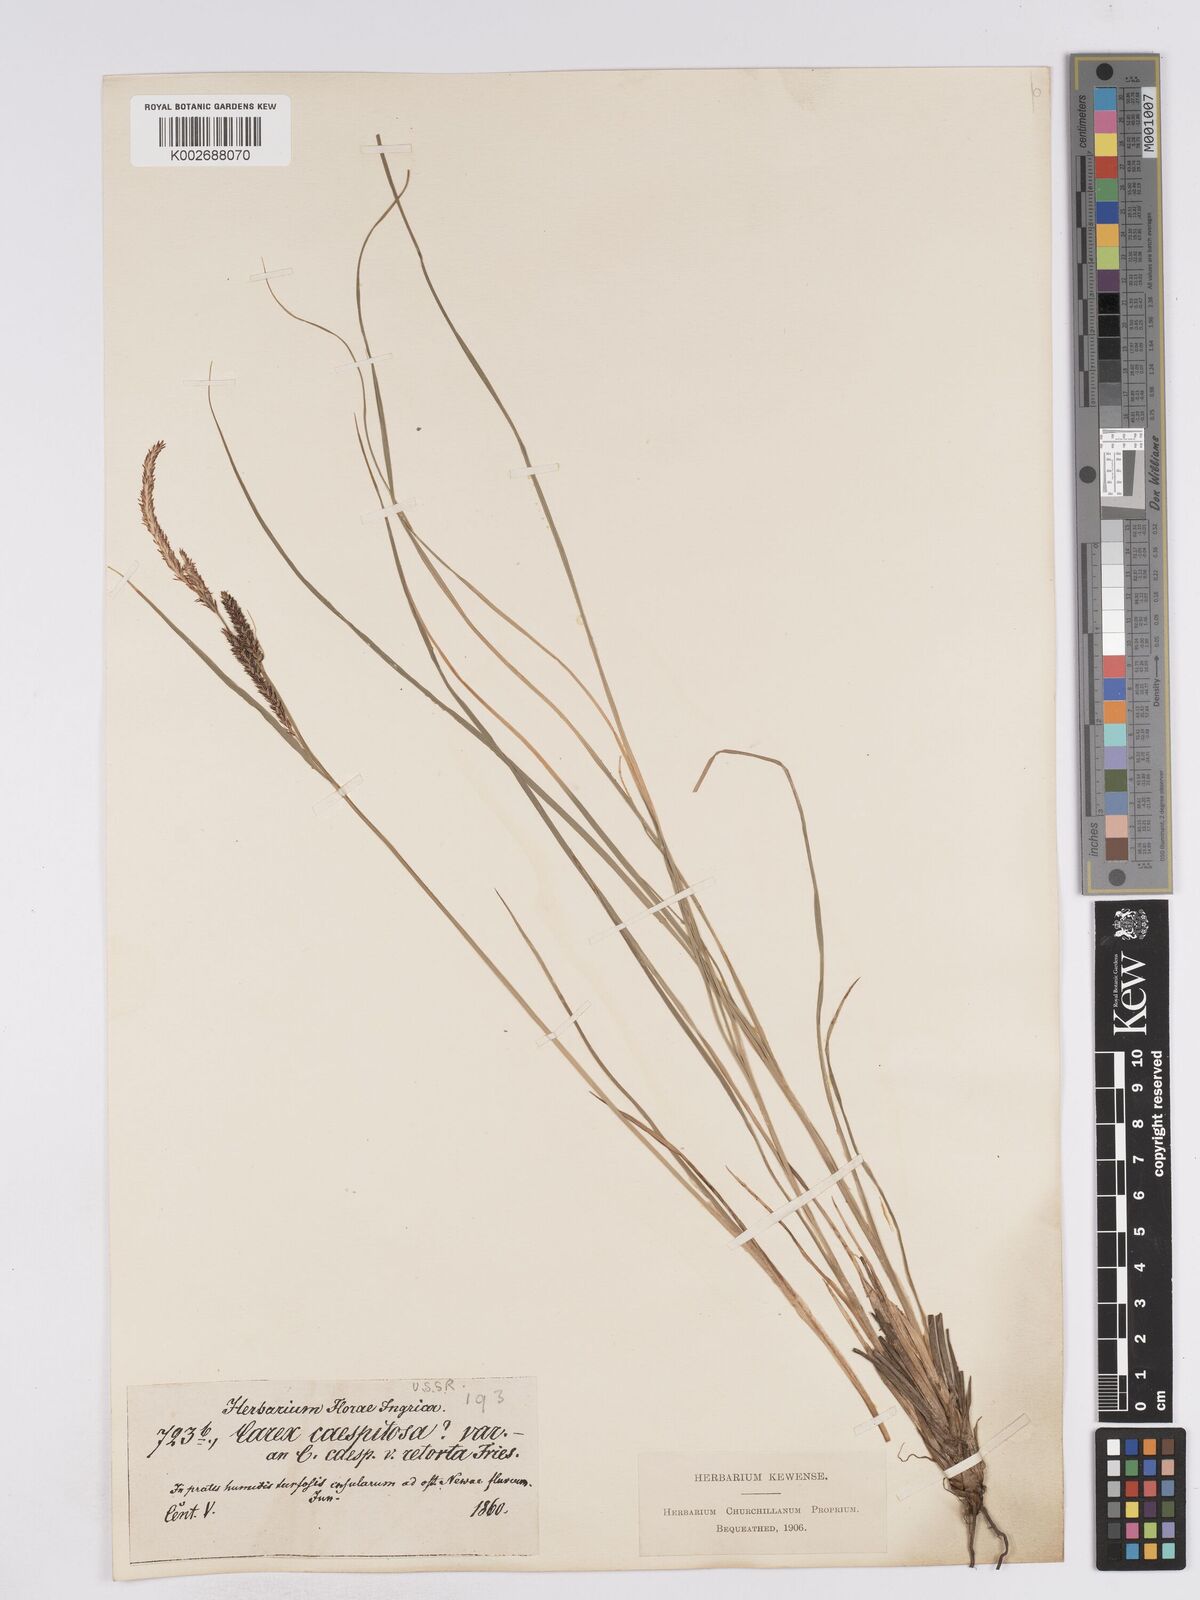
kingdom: Plantae
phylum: Tracheophyta
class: Liliopsida
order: Poales
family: Cyperaceae
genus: Carex
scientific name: Carex cespitosa
